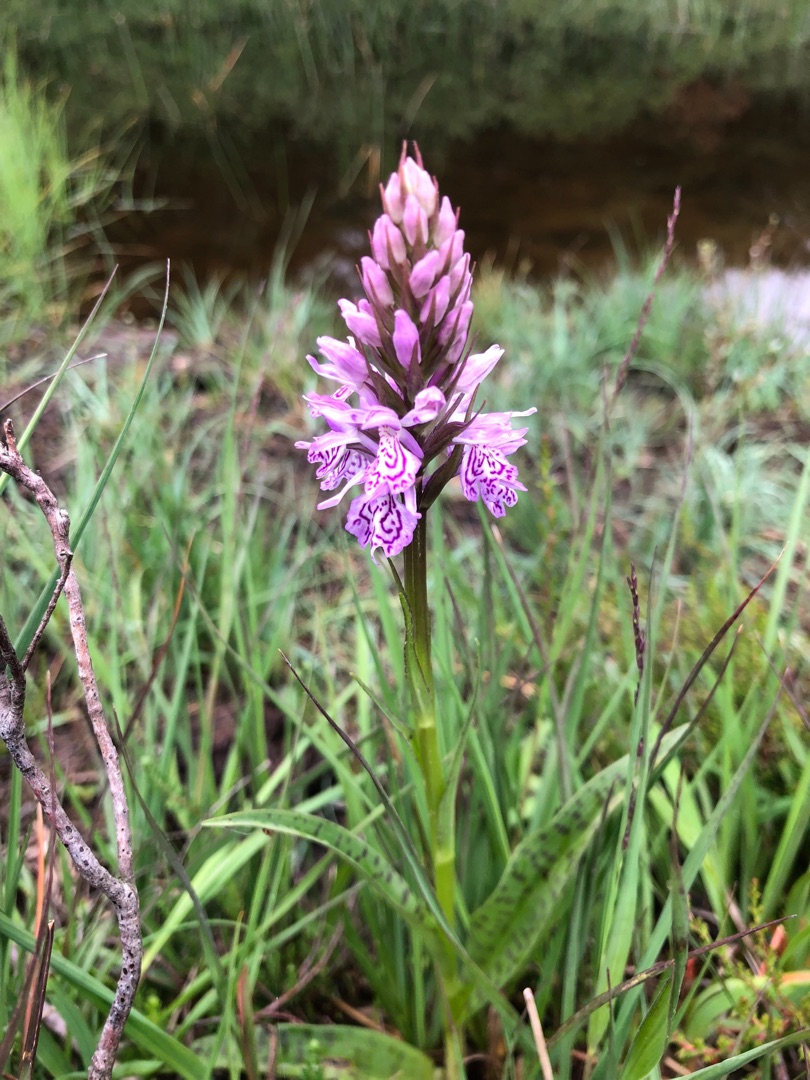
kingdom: Plantae
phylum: Tracheophyta
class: Liliopsida
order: Asparagales
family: Orchidaceae
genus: Dactylorhiza
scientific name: Dactylorhiza maculata
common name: Plettet gøgeurt
